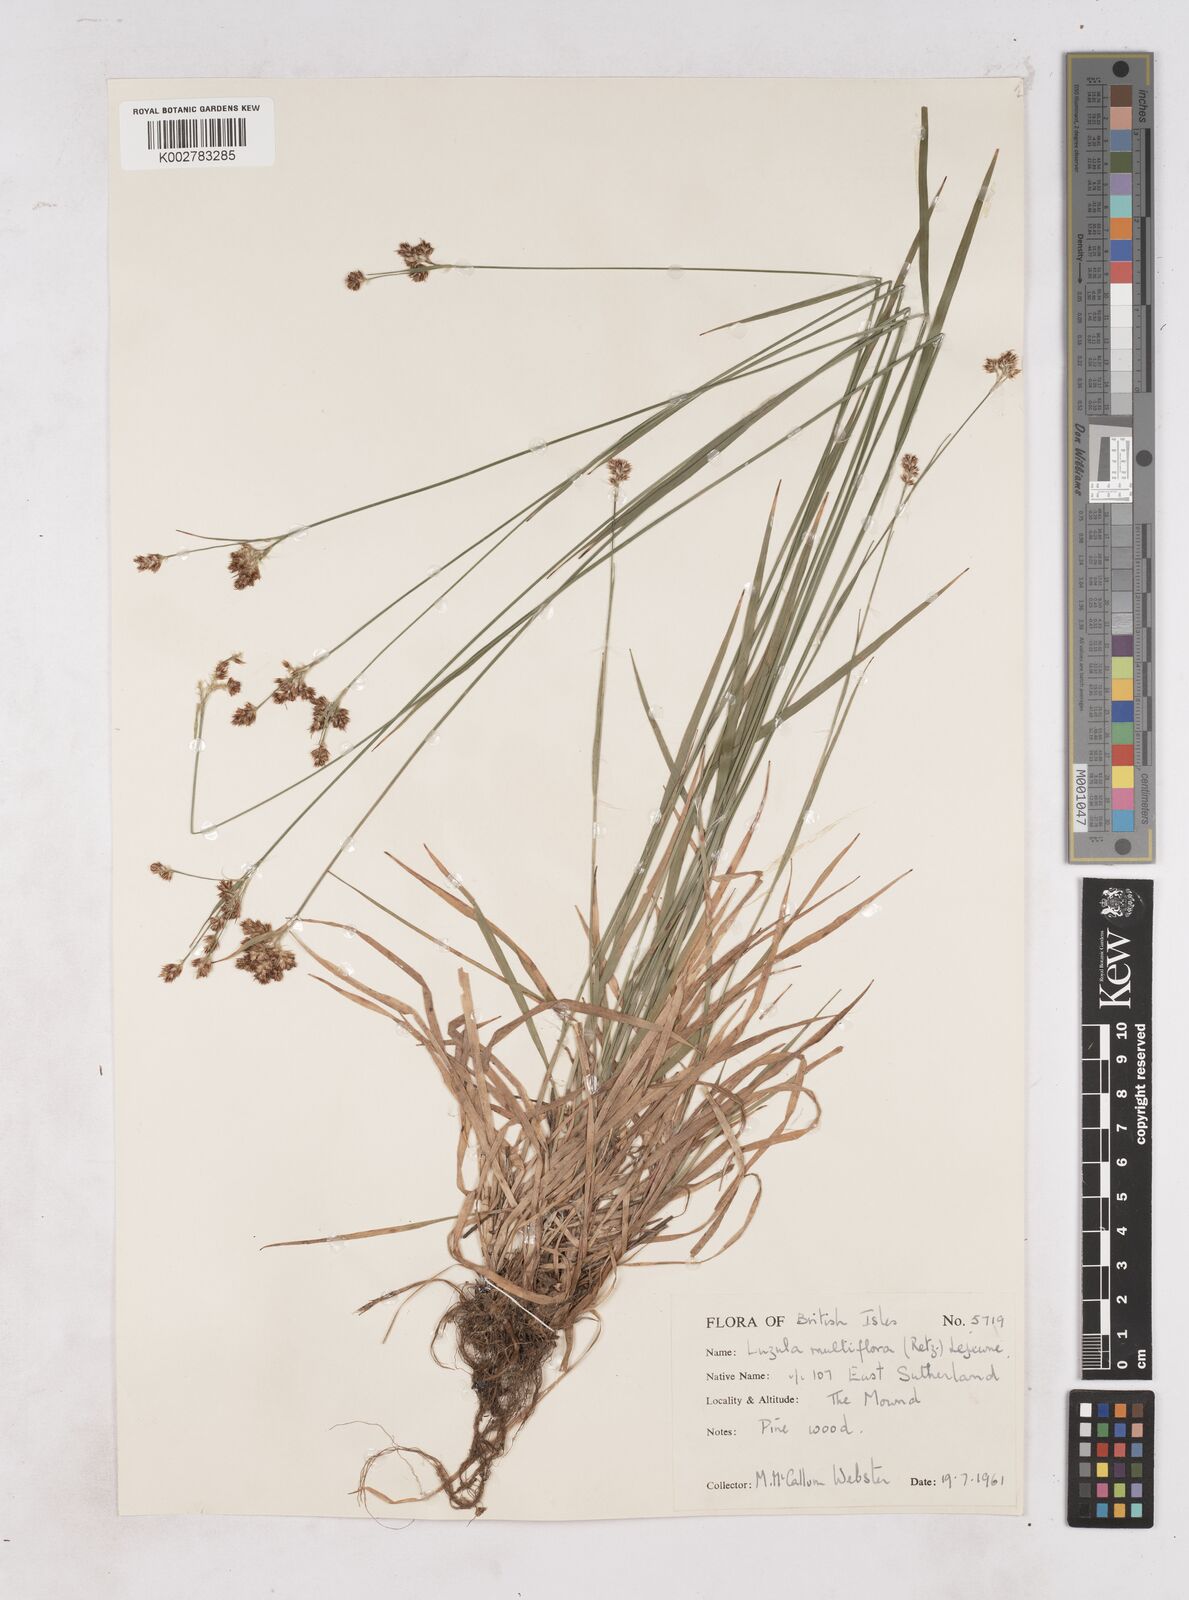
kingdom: Plantae
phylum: Tracheophyta
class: Liliopsida
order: Poales
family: Juncaceae
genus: Luzula
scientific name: Luzula multiflora
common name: Heath wood-rush
